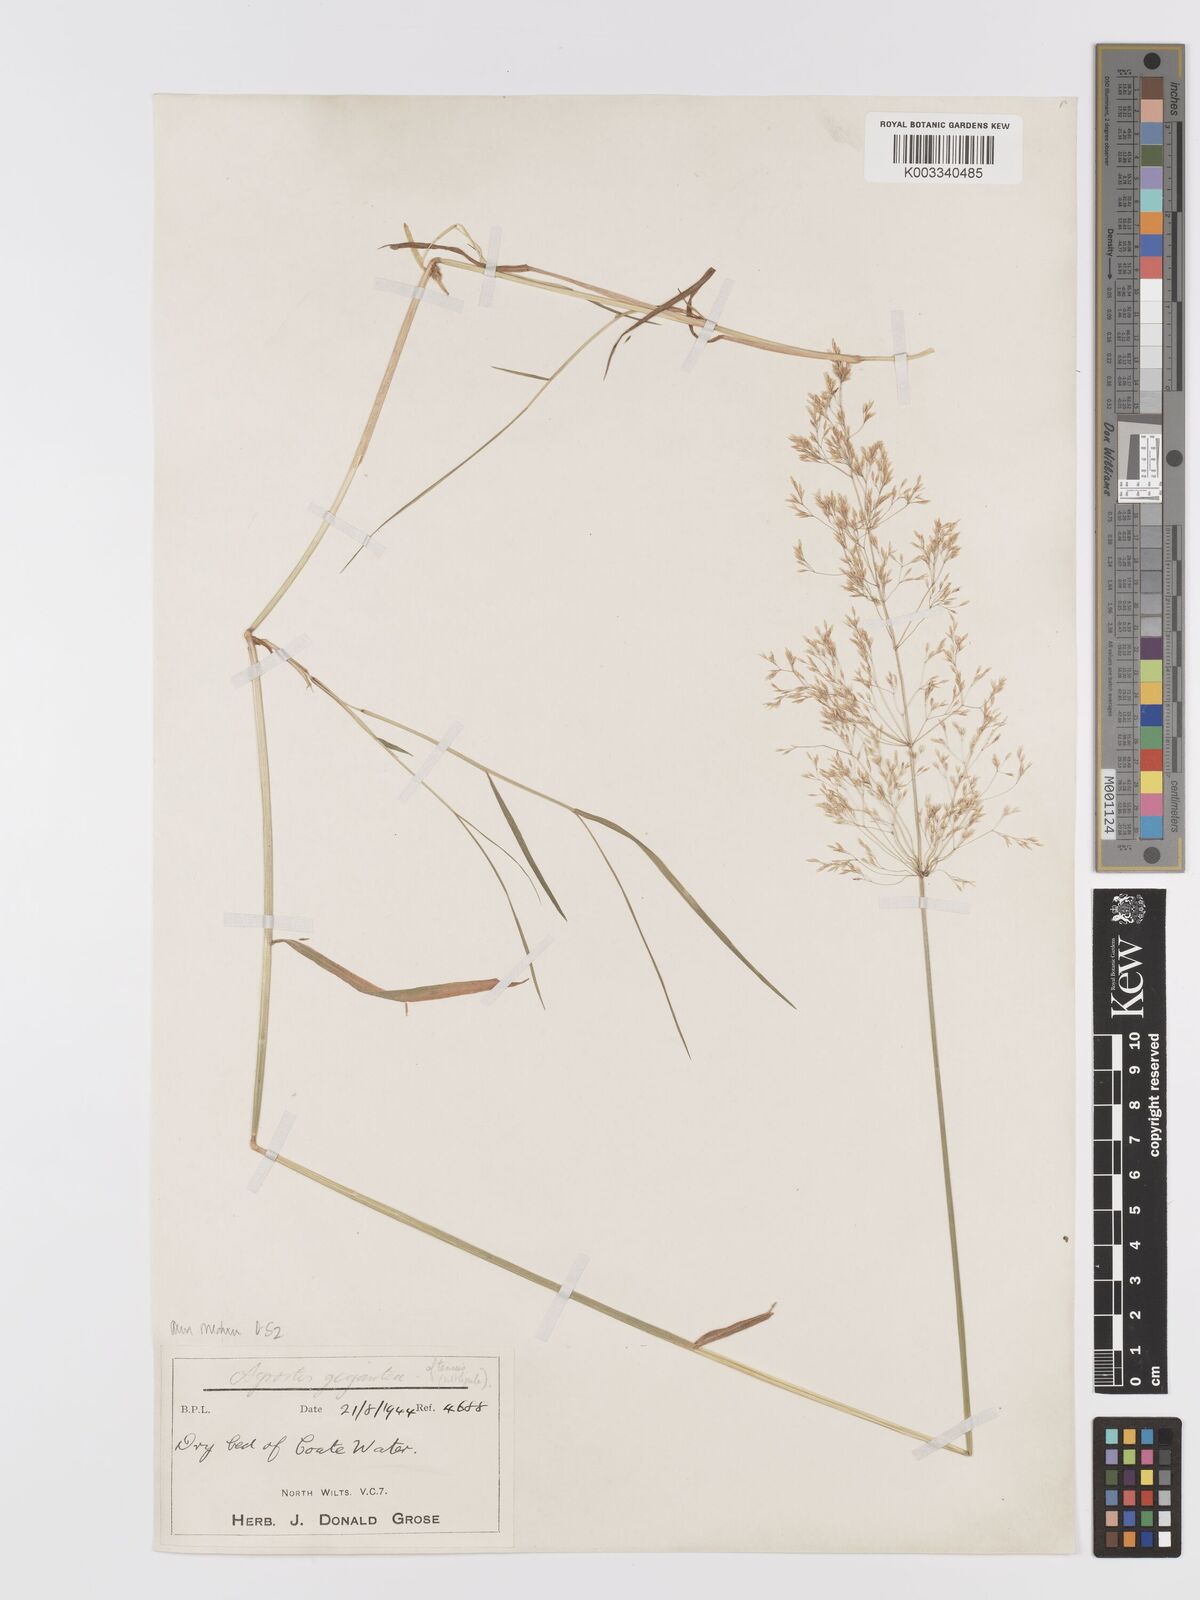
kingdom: Plantae
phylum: Tracheophyta
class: Liliopsida
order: Poales
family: Poaceae
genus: Agrostis
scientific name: Agrostis capillaris
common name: Colonial bentgrass
